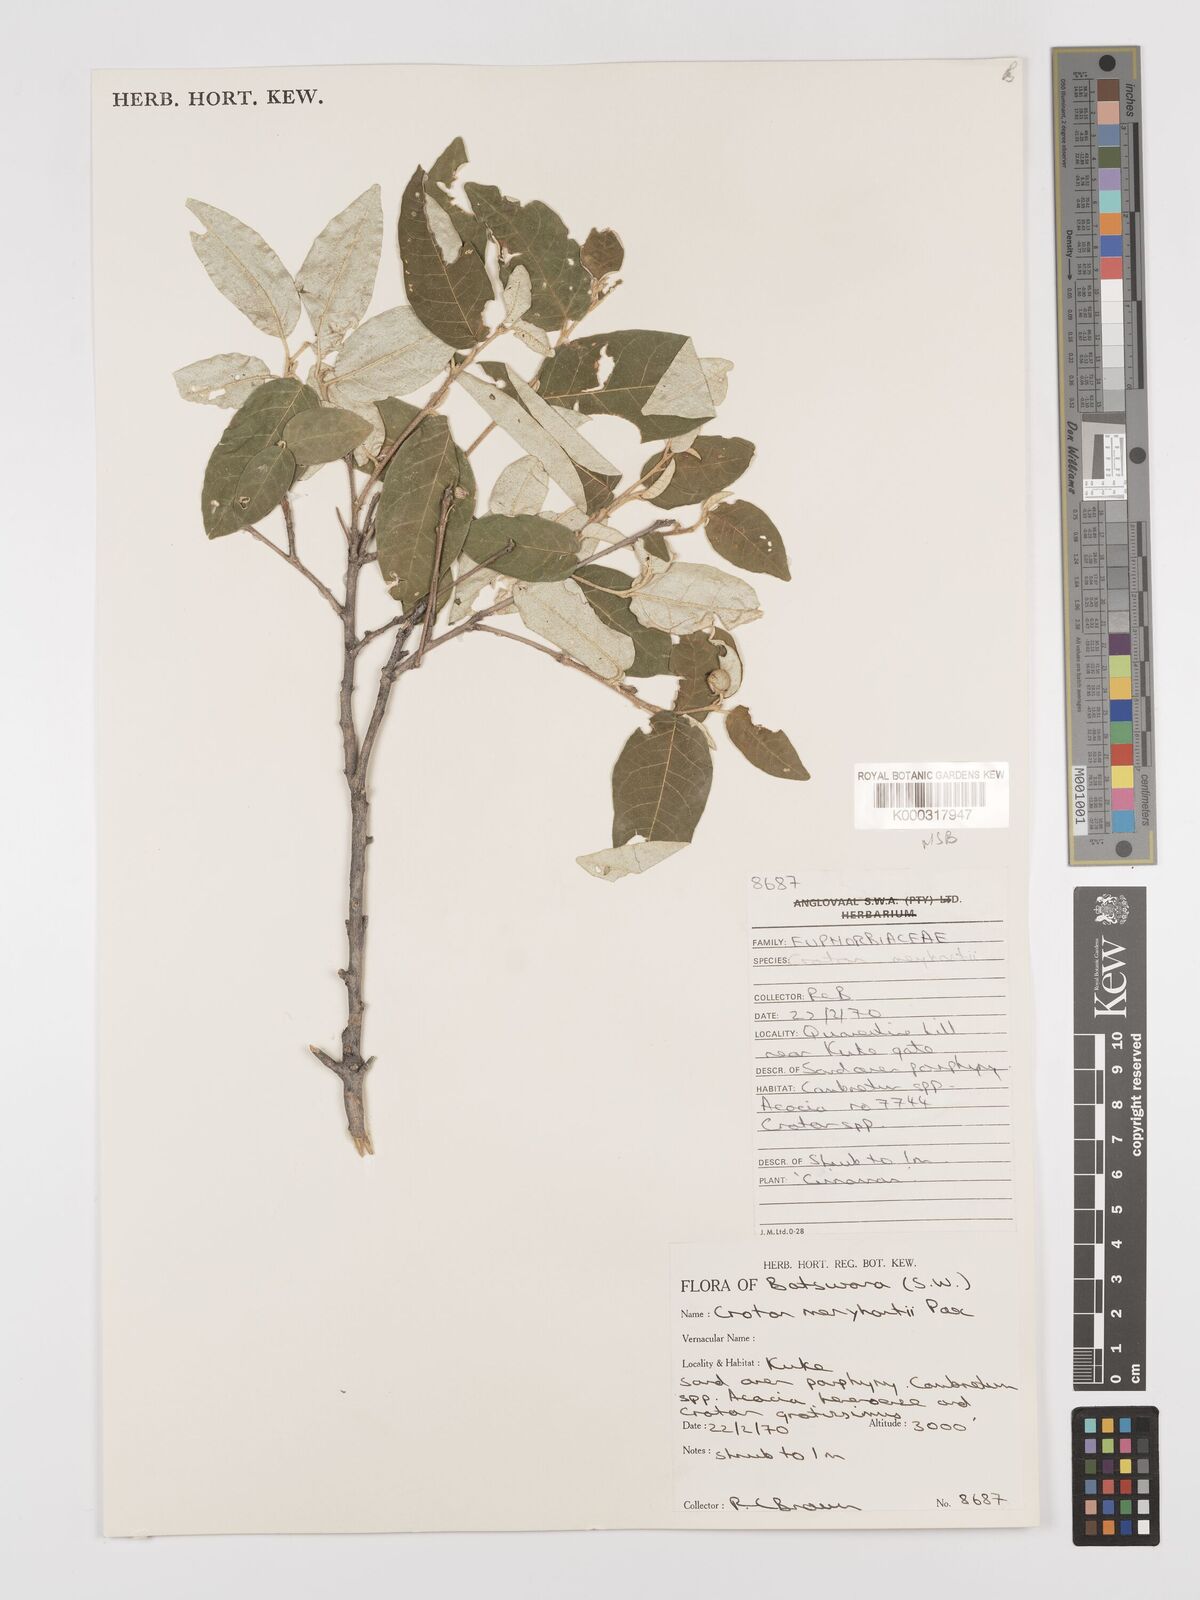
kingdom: Plantae
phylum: Tracheophyta
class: Magnoliopsida
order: Malpighiales
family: Euphorbiaceae
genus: Croton
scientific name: Croton menyharthii
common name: Rough-leaved croton
